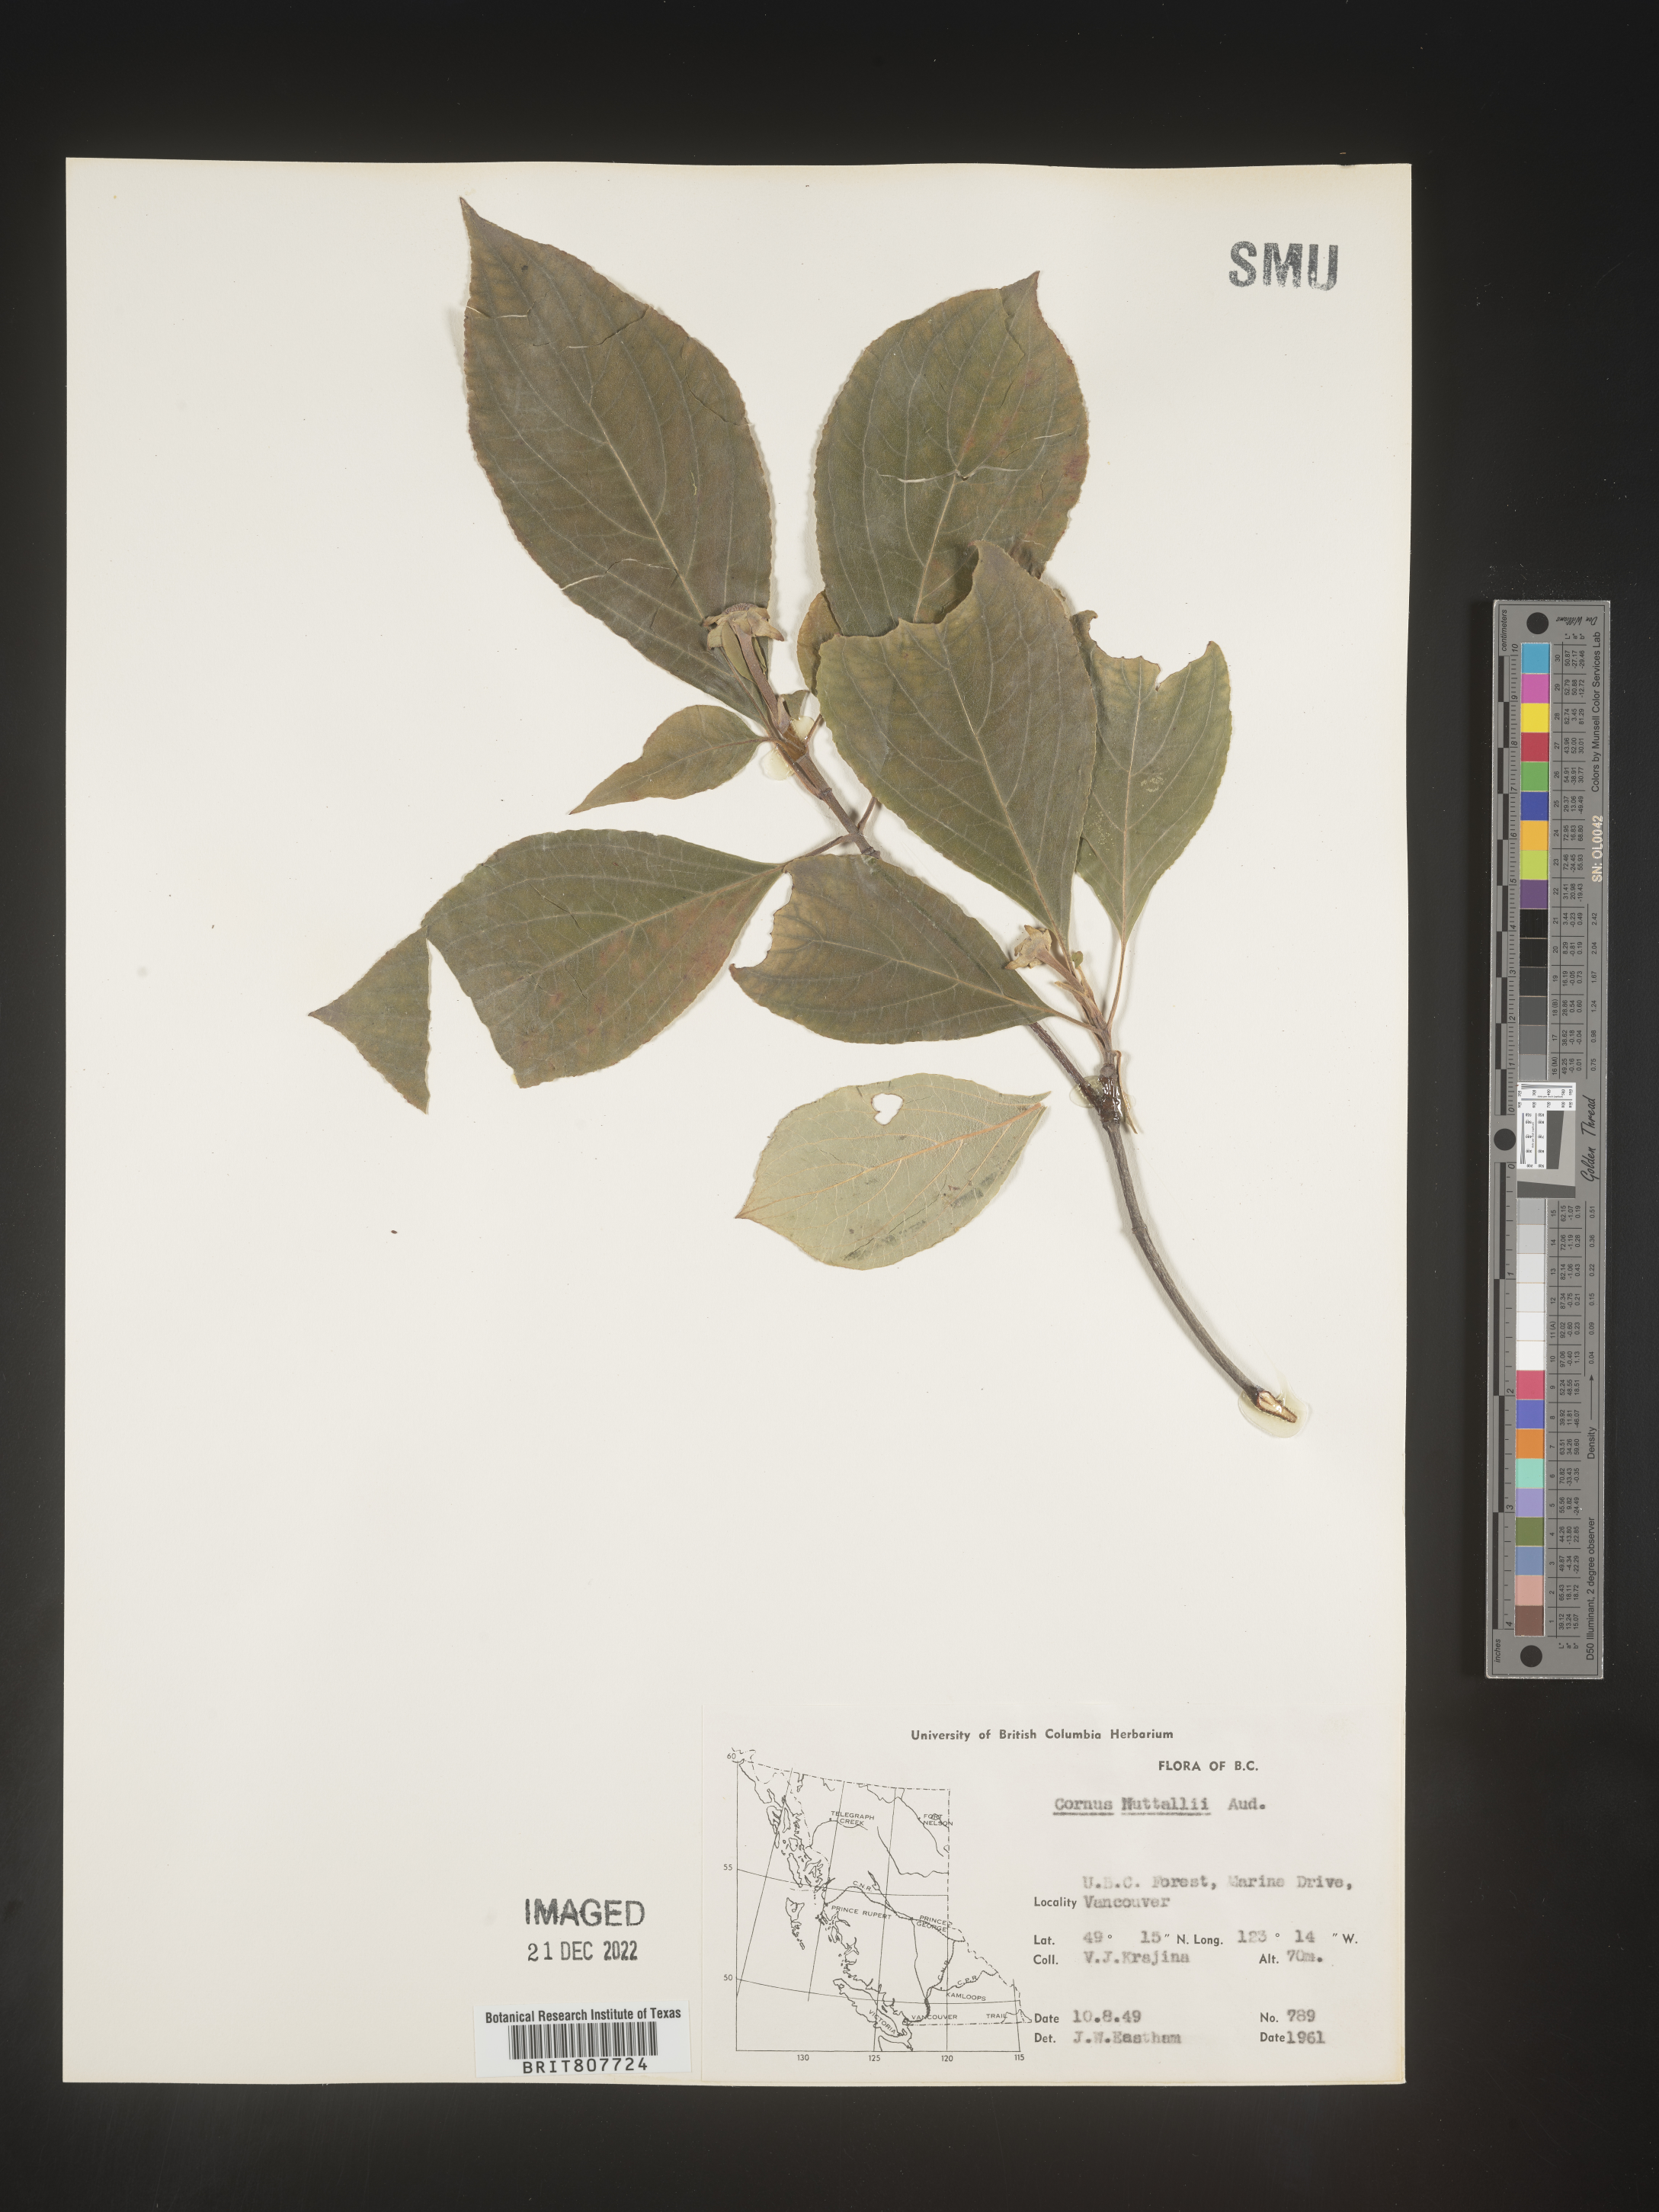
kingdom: Plantae
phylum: Tracheophyta
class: Magnoliopsida
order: Cornales
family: Cornaceae
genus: Cornus
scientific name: Cornus nuttallii
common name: Pacific dogwood
